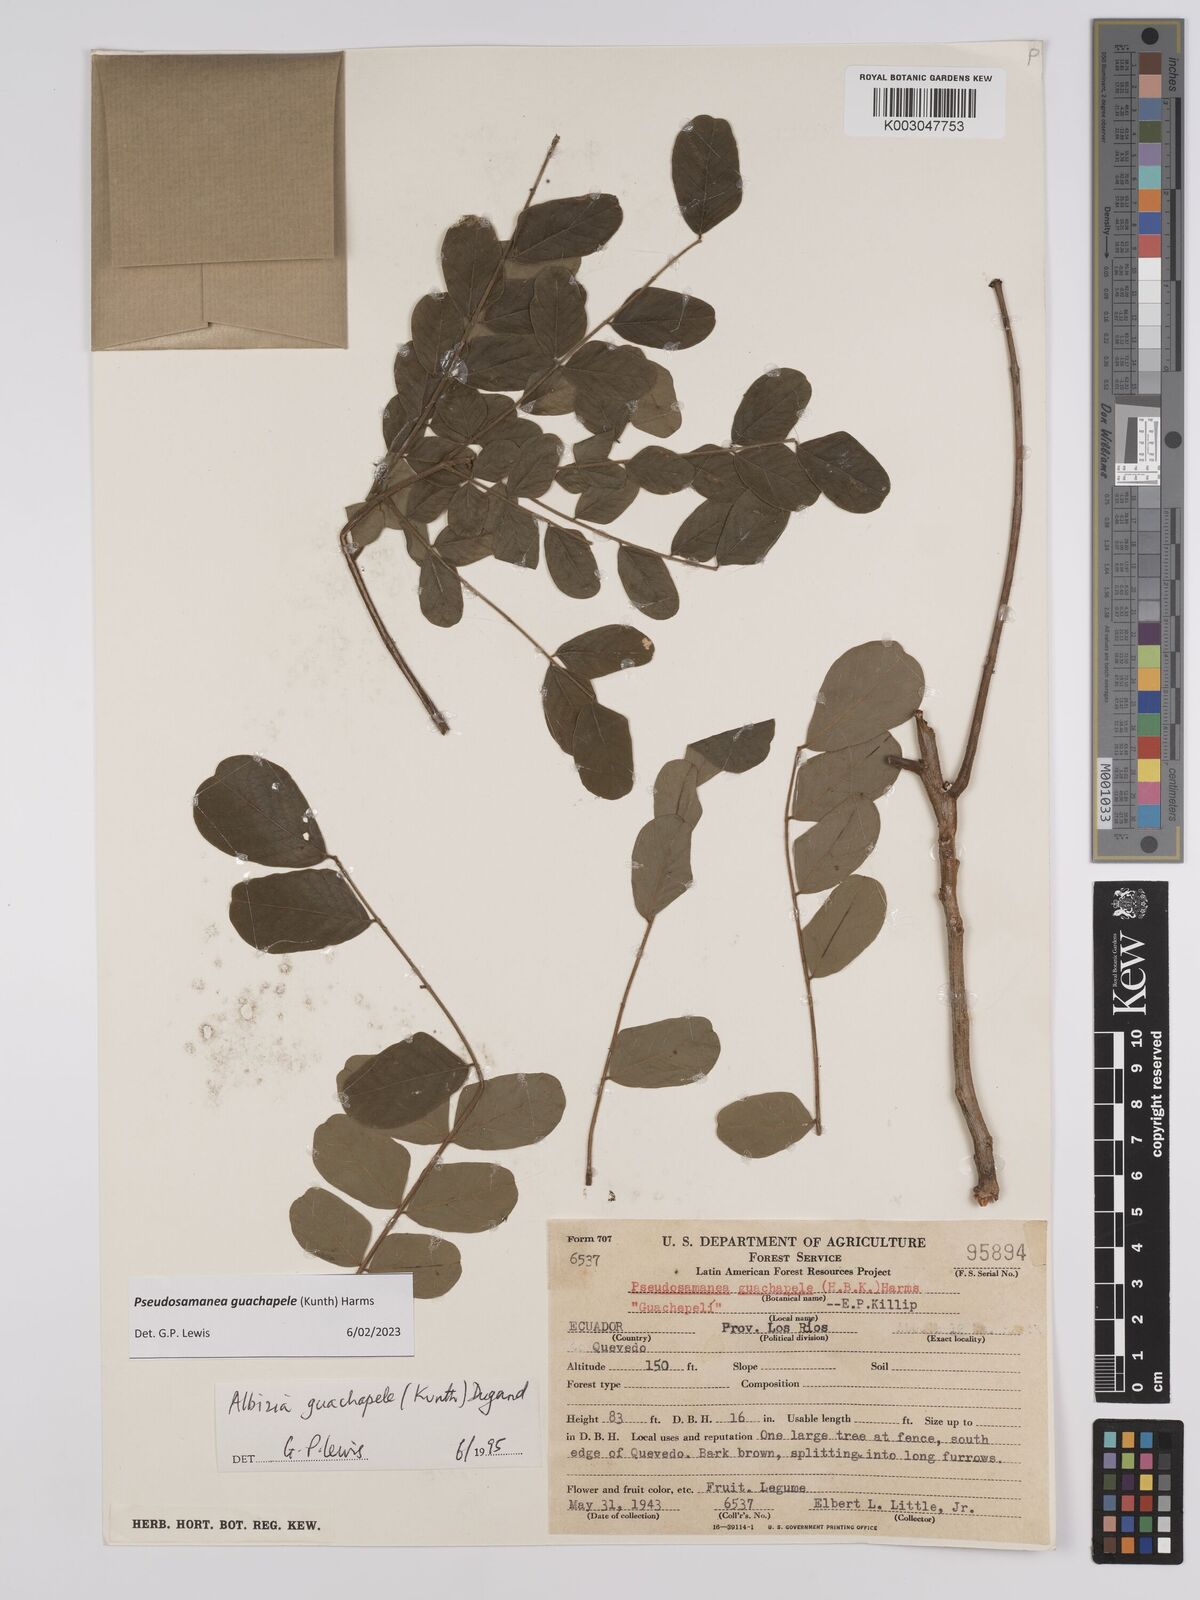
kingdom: Plantae
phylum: Tracheophyta
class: Magnoliopsida
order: Fabales
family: Fabaceae
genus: Pseudosamanea
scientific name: Pseudosamanea guachapele
